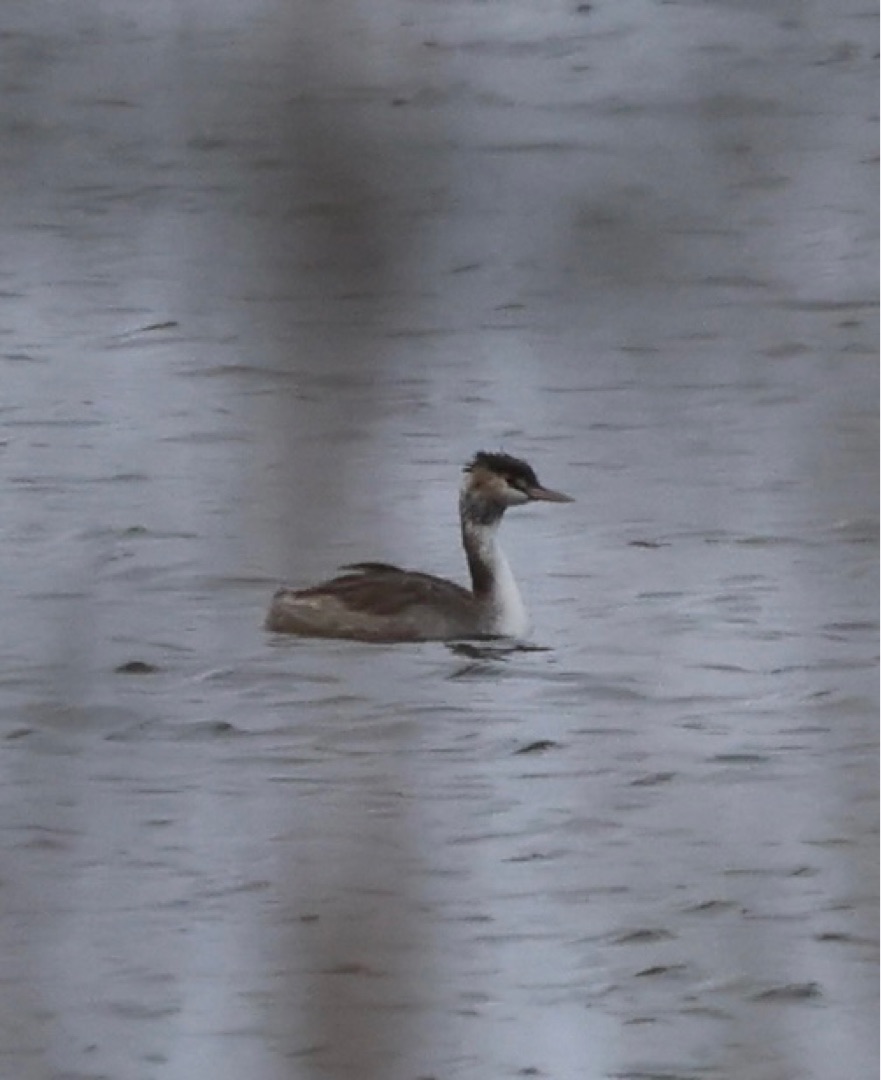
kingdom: Animalia
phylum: Chordata
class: Aves
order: Podicipediformes
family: Podicipedidae
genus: Podiceps
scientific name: Podiceps cristatus
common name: Toppet lappedykker
